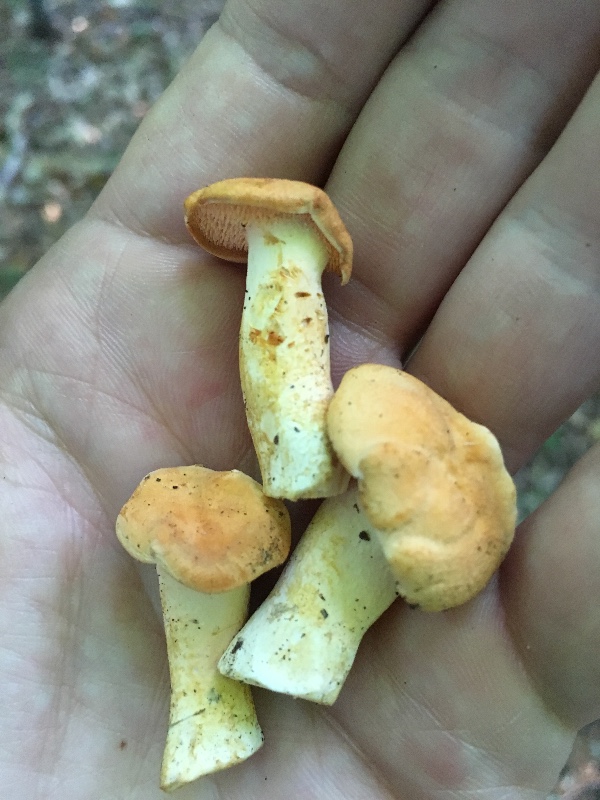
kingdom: Fungi
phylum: Basidiomycota
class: Agaricomycetes
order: Cantharellales
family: Hydnaceae
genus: Hydnum
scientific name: Hydnum
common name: pigsvamp
